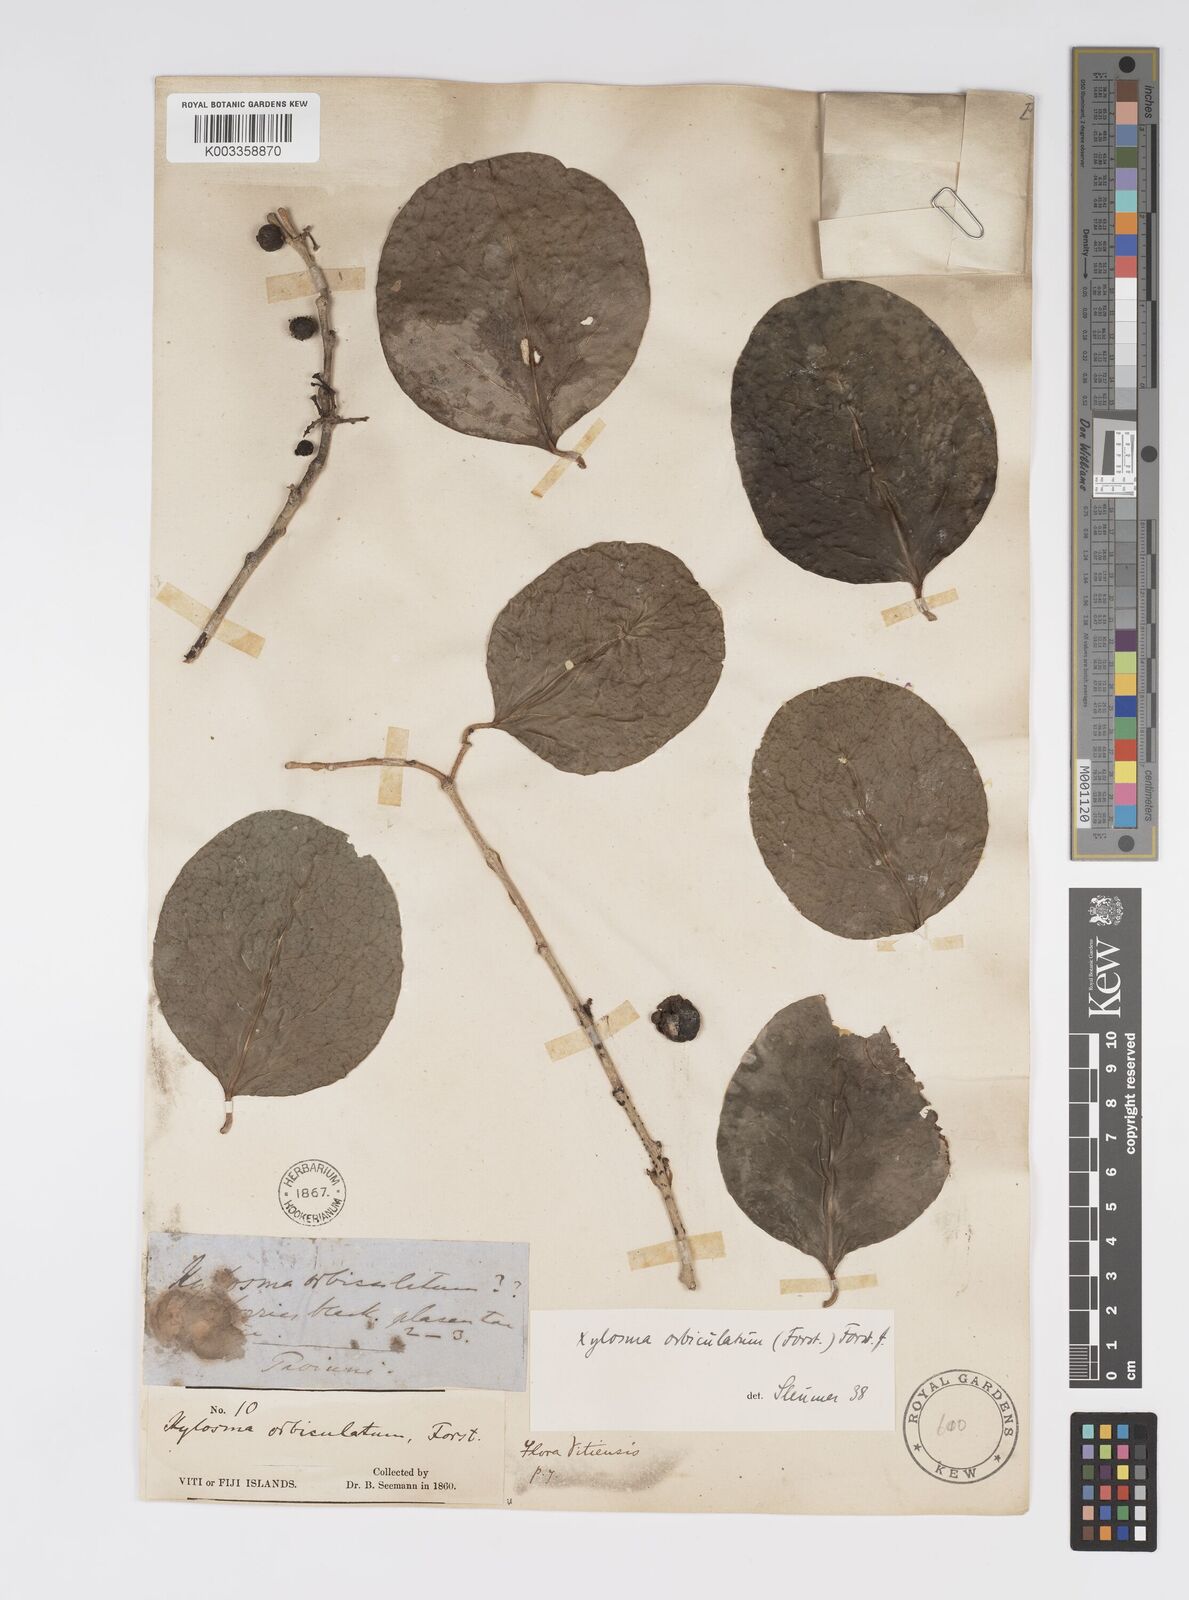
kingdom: Plantae
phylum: Tracheophyta
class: Magnoliopsida
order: Malpighiales
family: Salicaceae
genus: Xylosma
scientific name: Xylosma orbiculata
